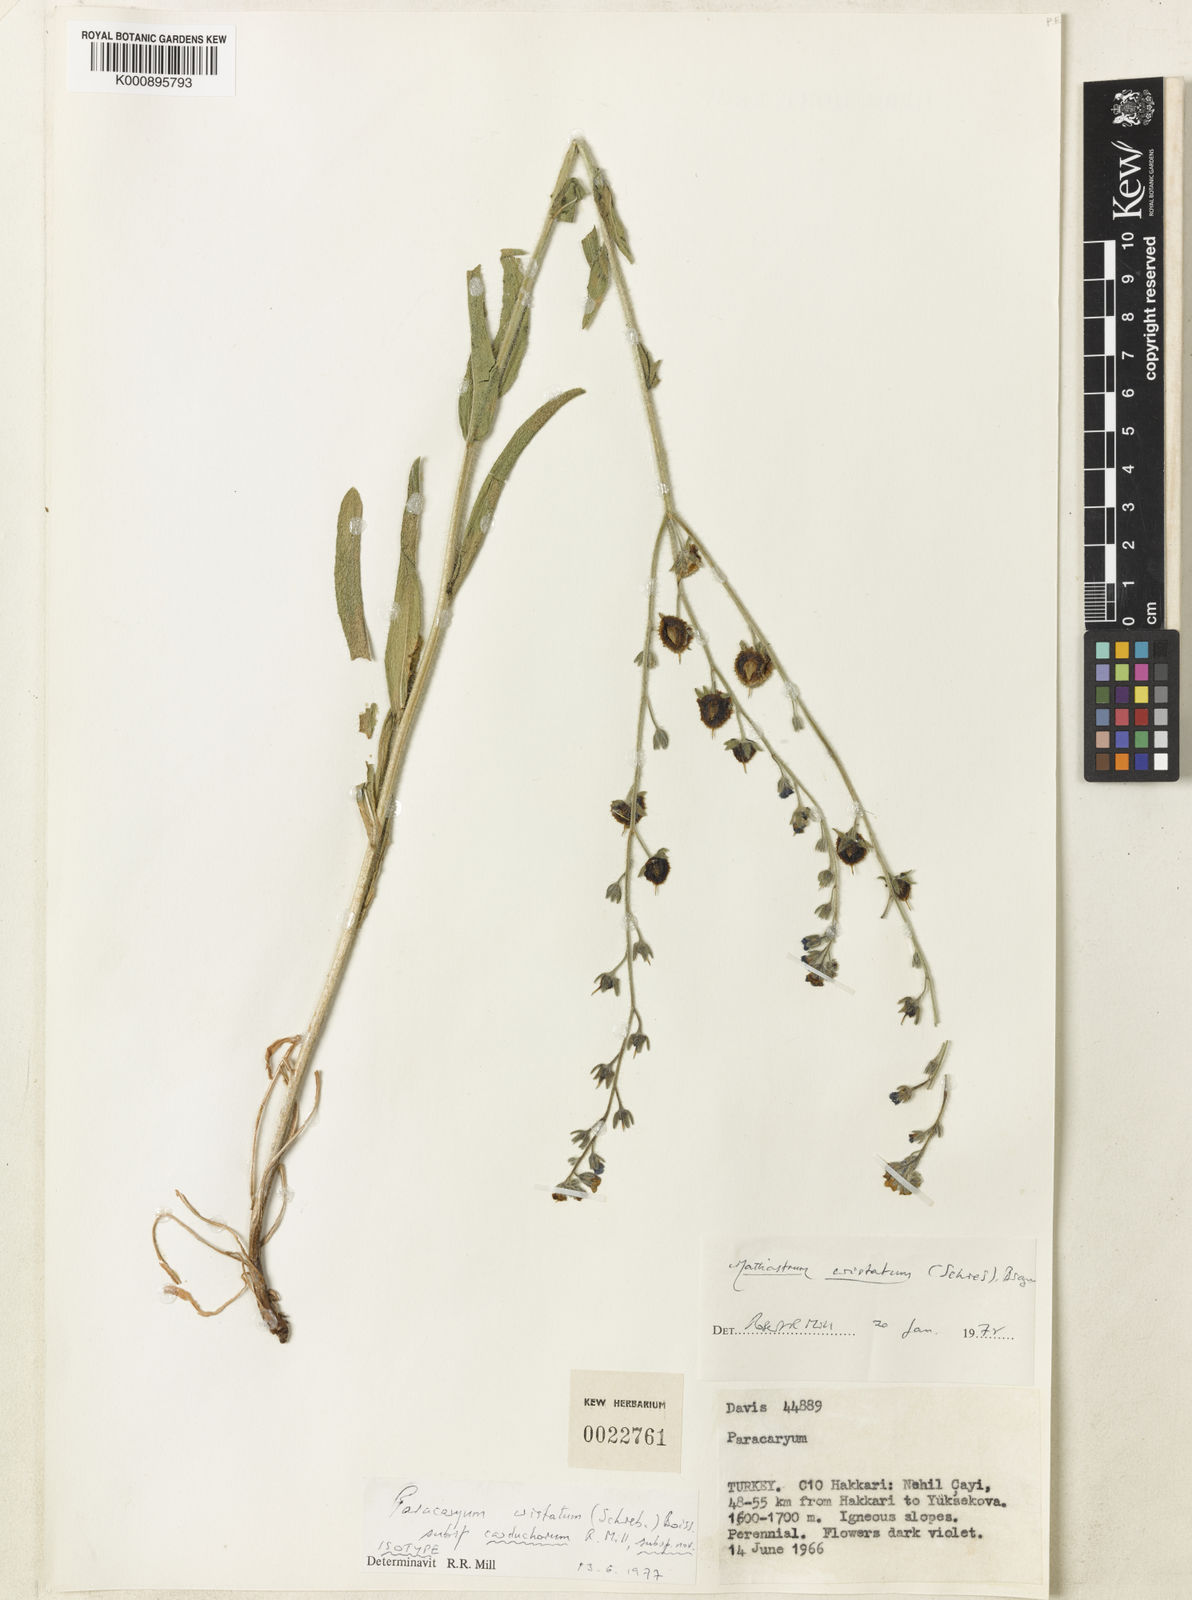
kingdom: Plantae
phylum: Tracheophyta
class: Magnoliopsida
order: Boraginales
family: Boraginaceae
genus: Paracaryum
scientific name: Paracaryum cristatum
